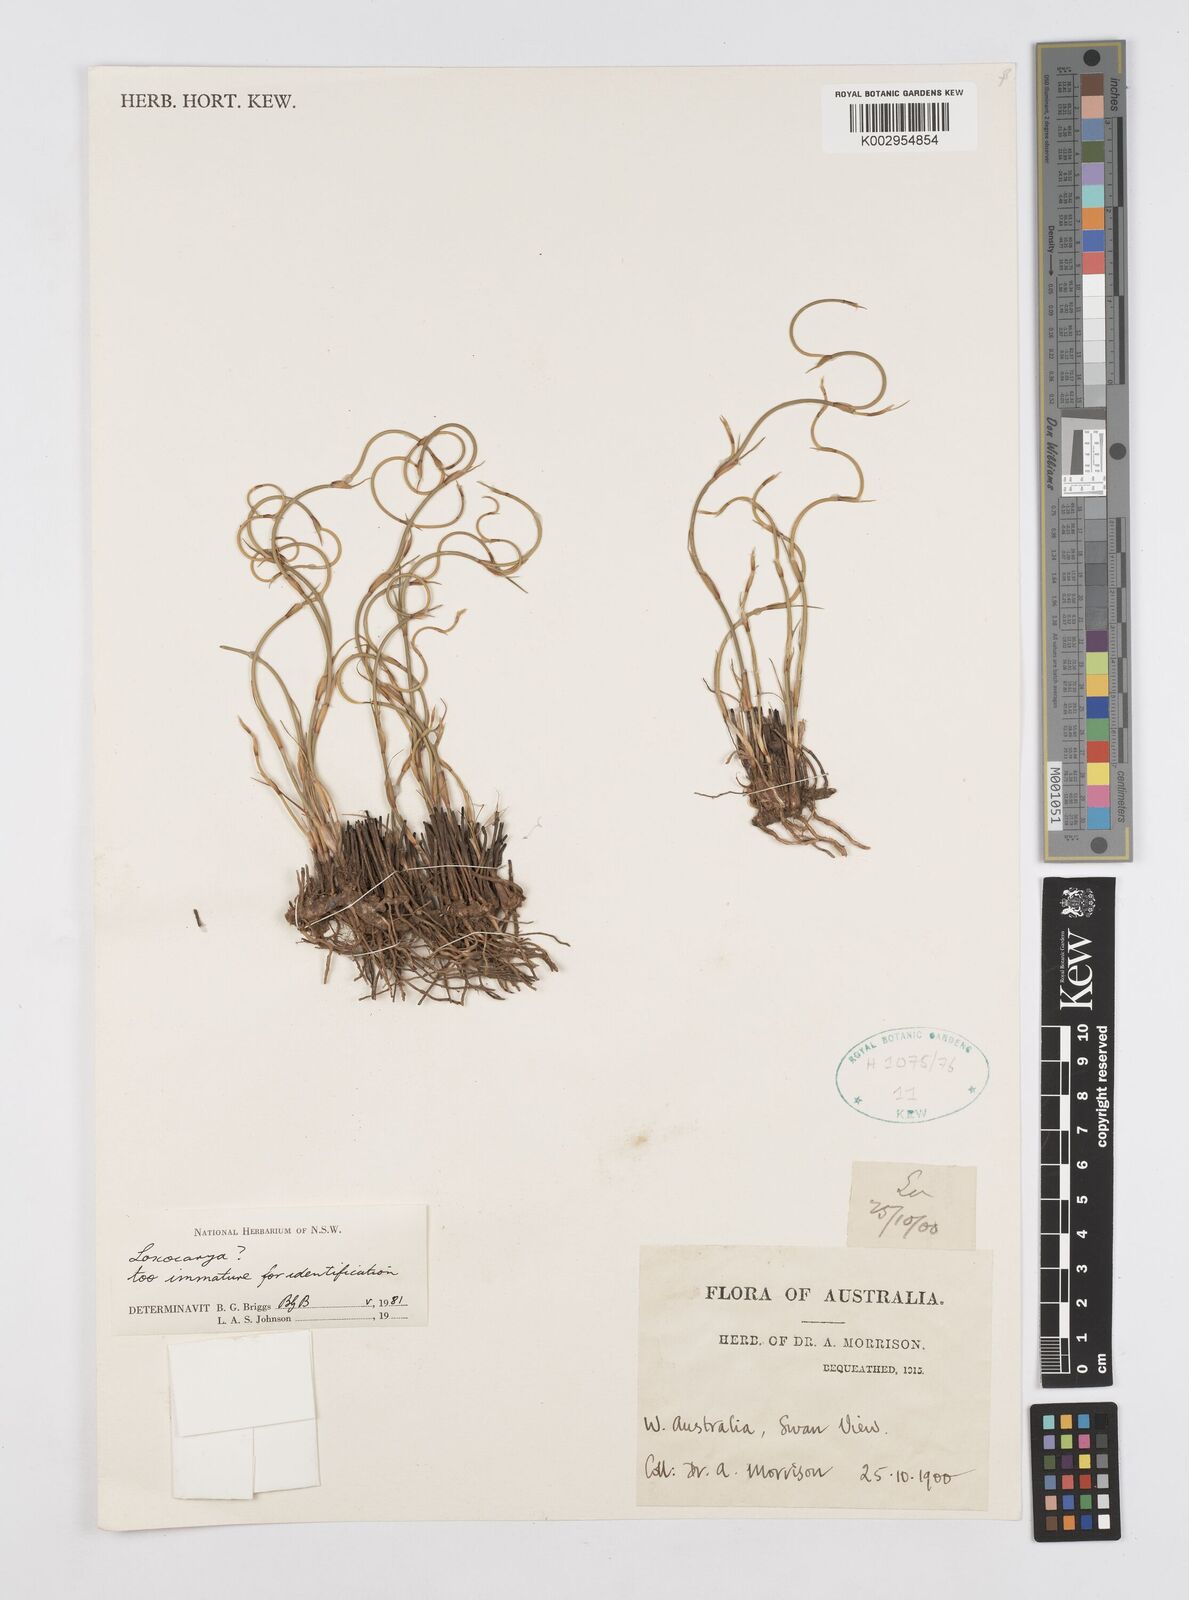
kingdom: Plantae
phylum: Tracheophyta
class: Liliopsida
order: Poales
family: Restionaceae
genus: Lepidobolus
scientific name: Lepidobolus
